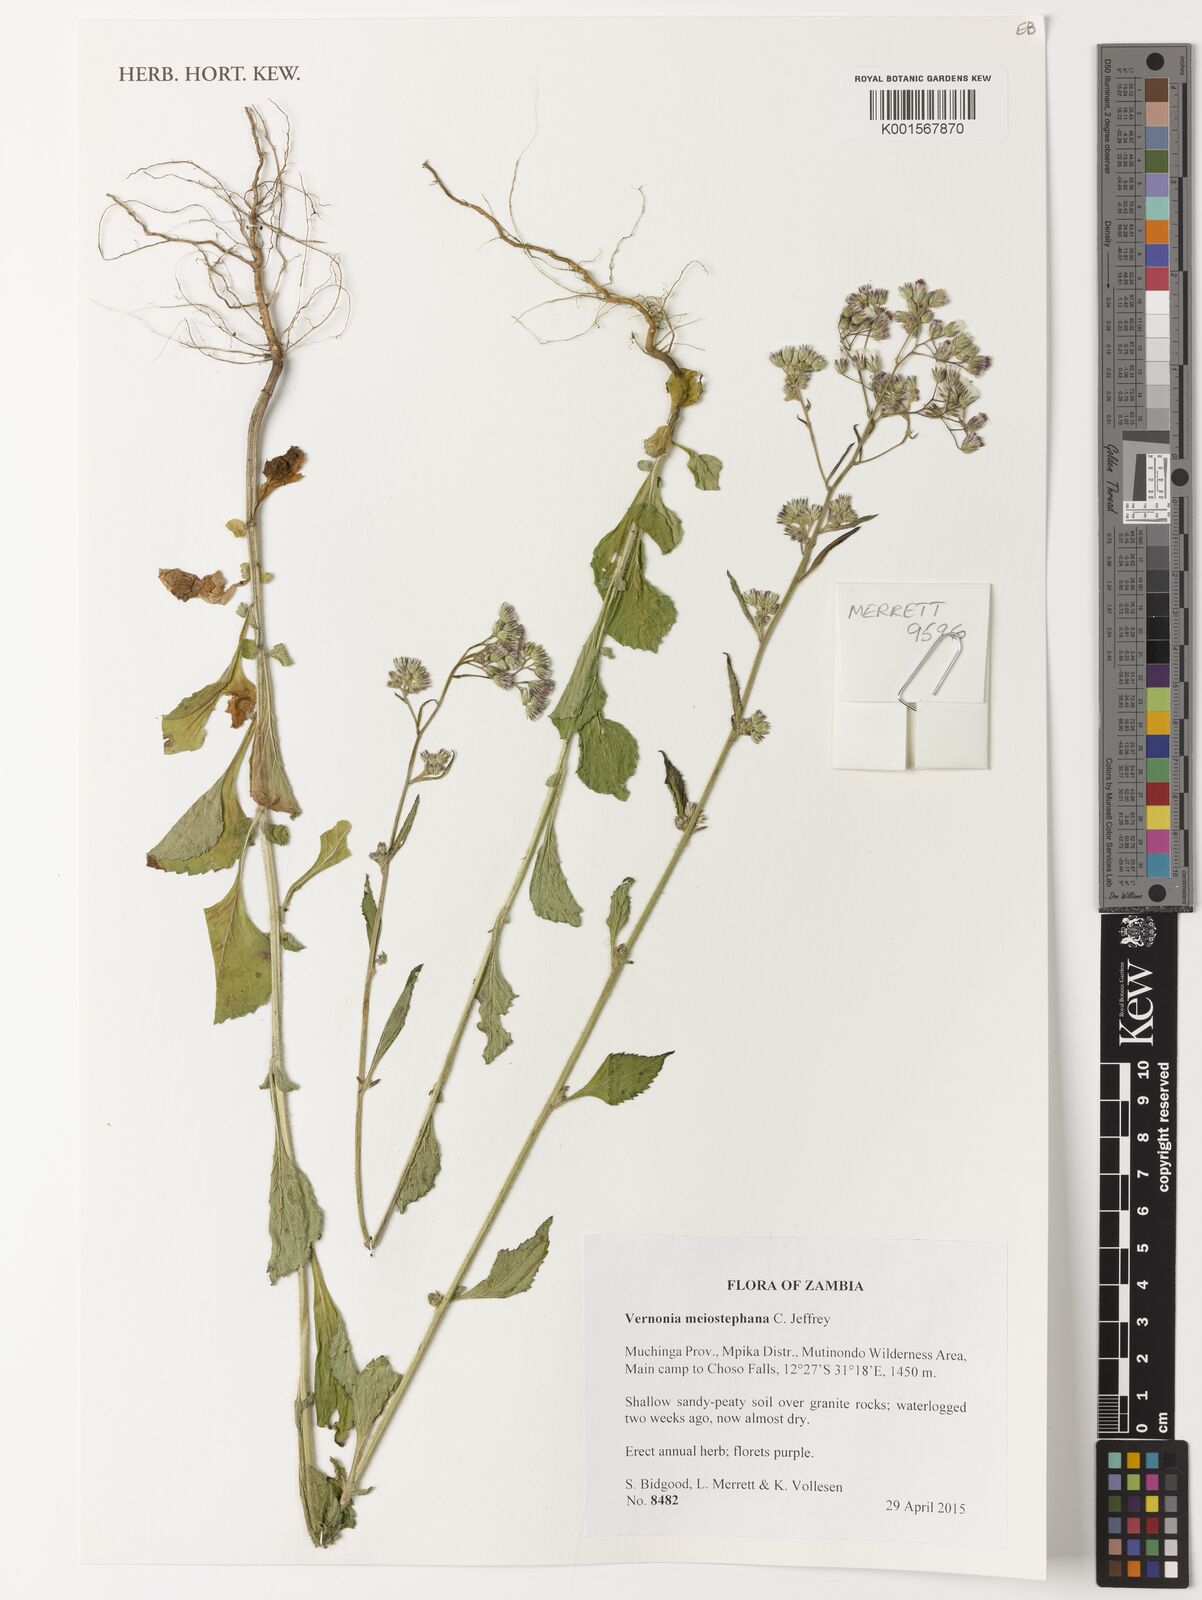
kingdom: Plantae
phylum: Tracheophyta
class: Magnoliopsida
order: Asterales
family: Asteraceae
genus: Cyanthillium
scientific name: Cyanthillium vernonioides
